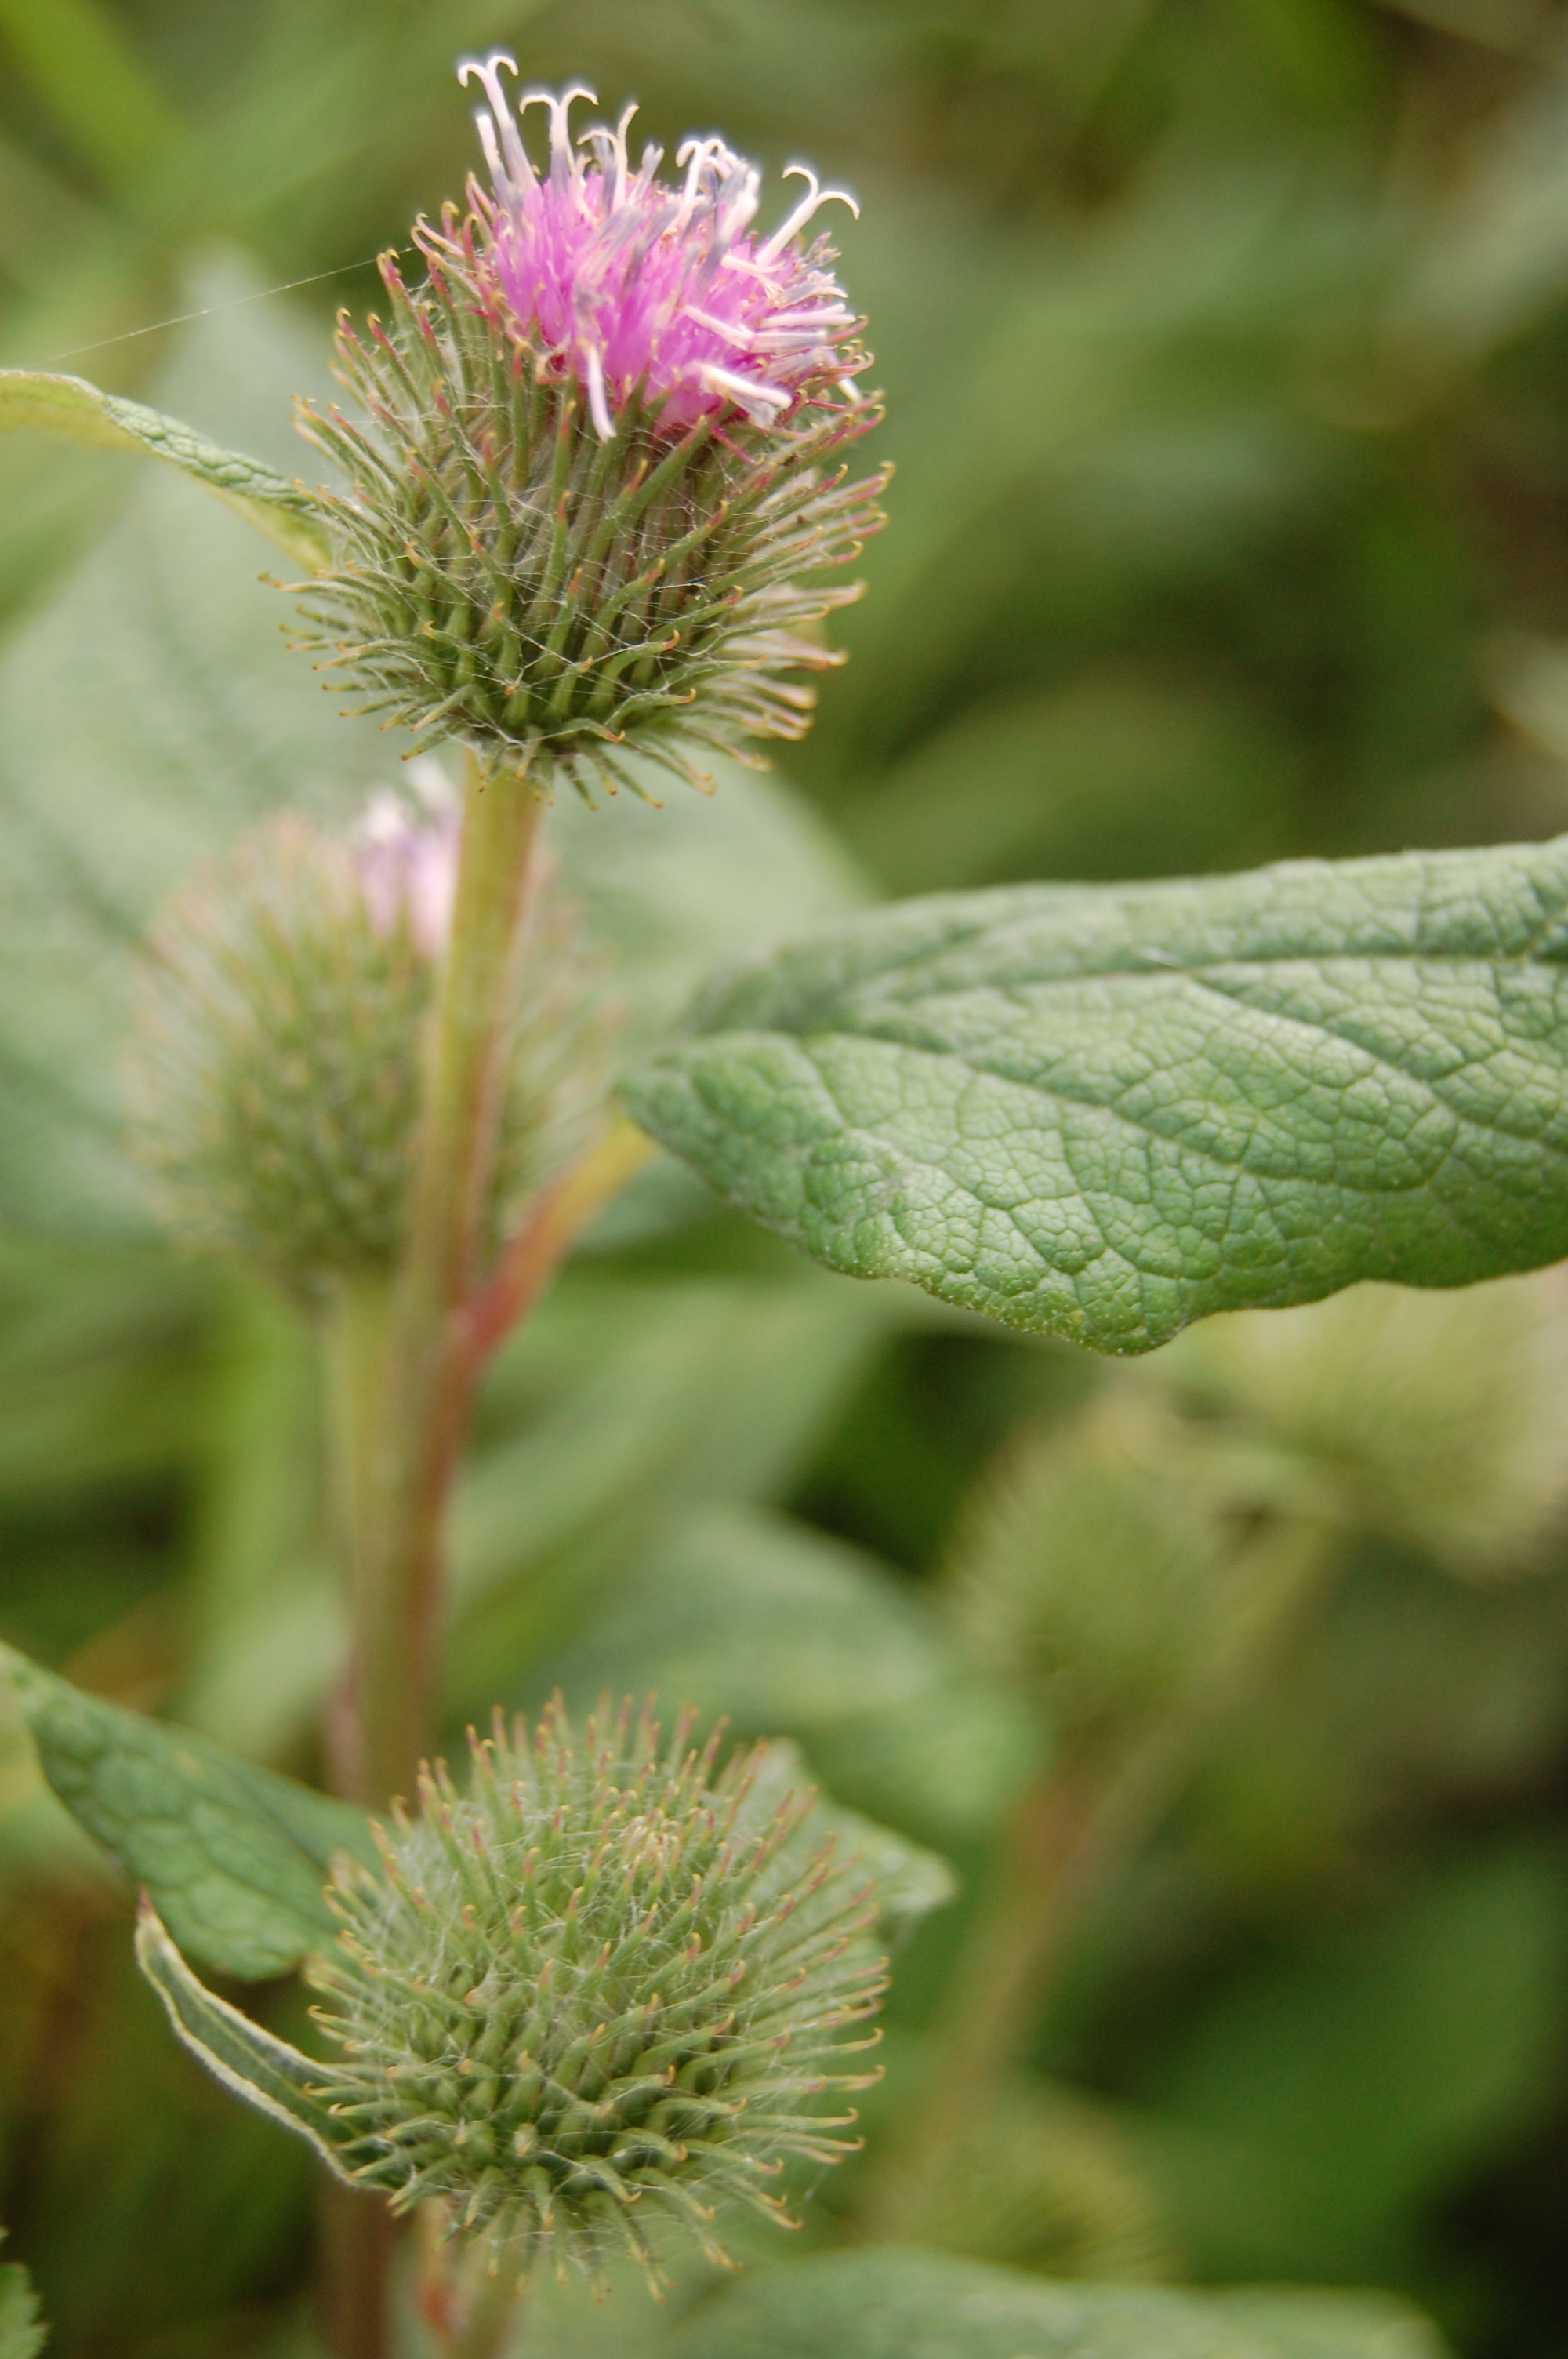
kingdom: Plantae
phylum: Tracheophyta
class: Magnoliopsida
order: Asterales
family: Asteraceae
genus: Arctium
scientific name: Arctium minus
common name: Lesser burdock
